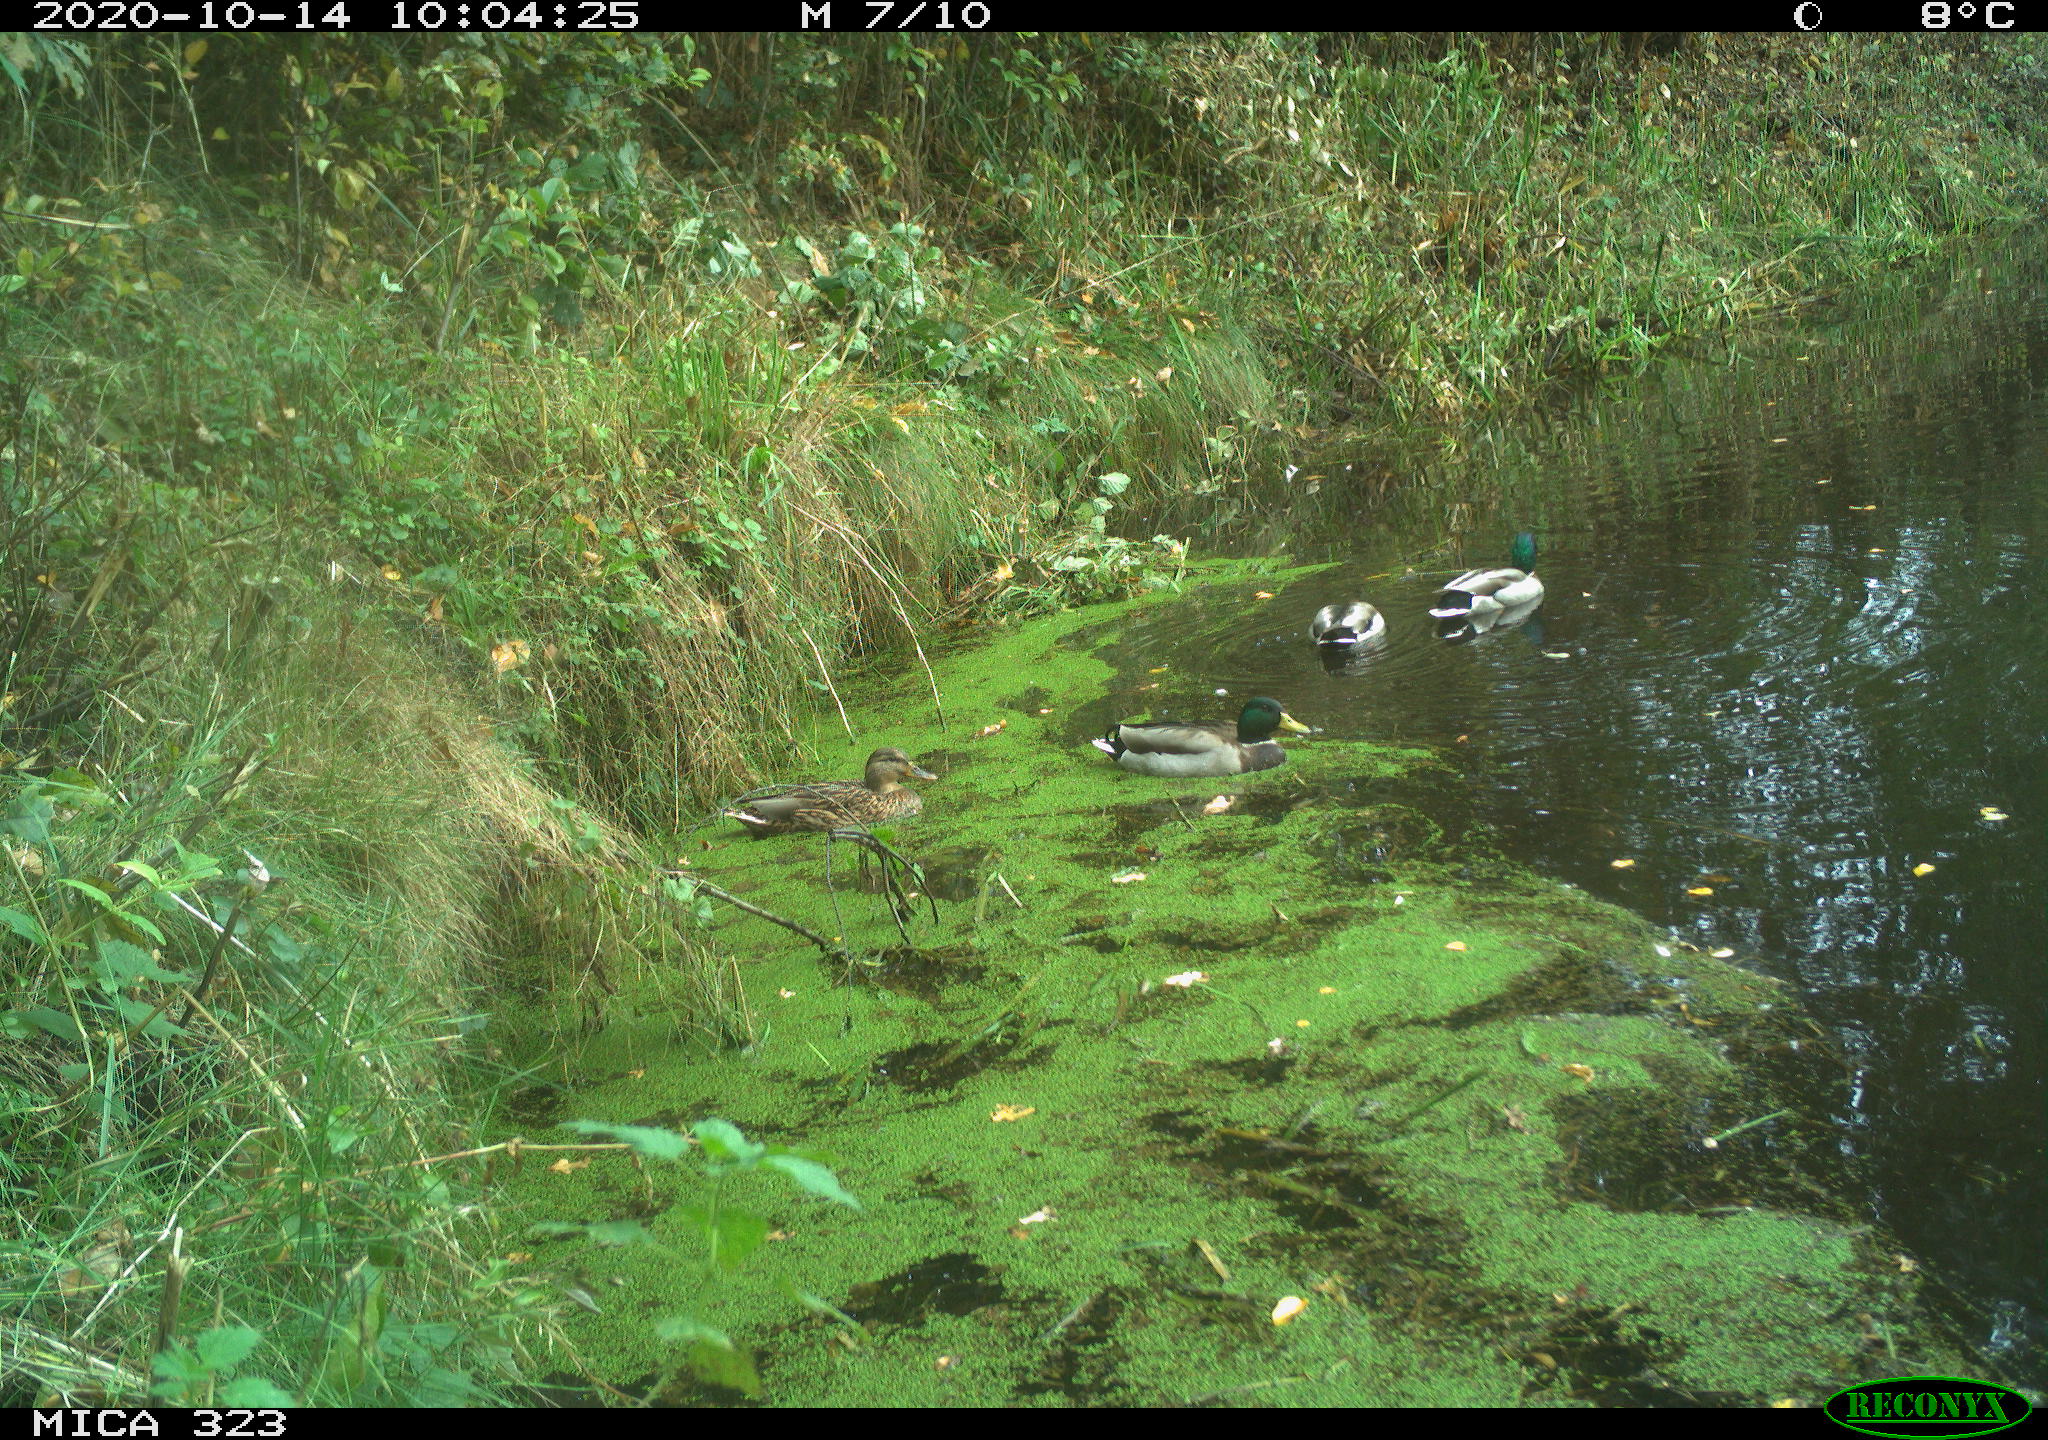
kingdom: Animalia
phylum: Chordata
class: Aves
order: Anseriformes
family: Anatidae
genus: Anas
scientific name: Anas platyrhynchos
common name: Mallard
